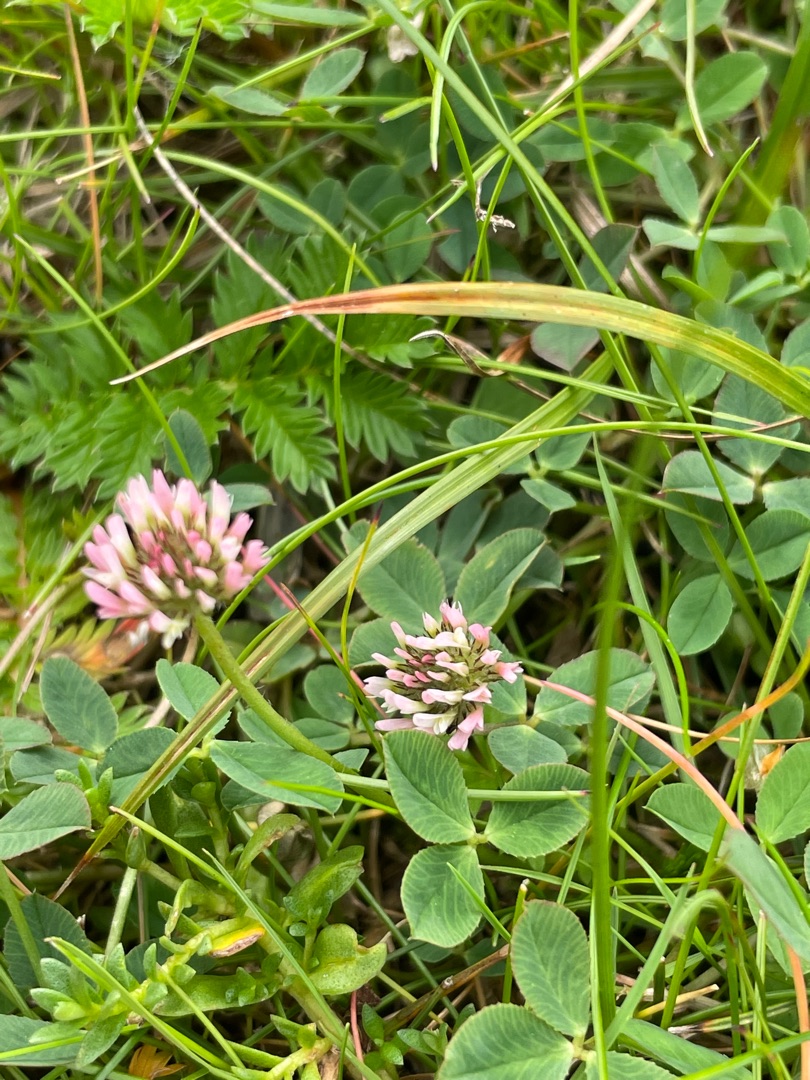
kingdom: Plantae
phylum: Tracheophyta
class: Magnoliopsida
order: Fabales
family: Fabaceae
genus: Trifolium
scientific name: Trifolium fragiferum
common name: Jordbær-kløver
